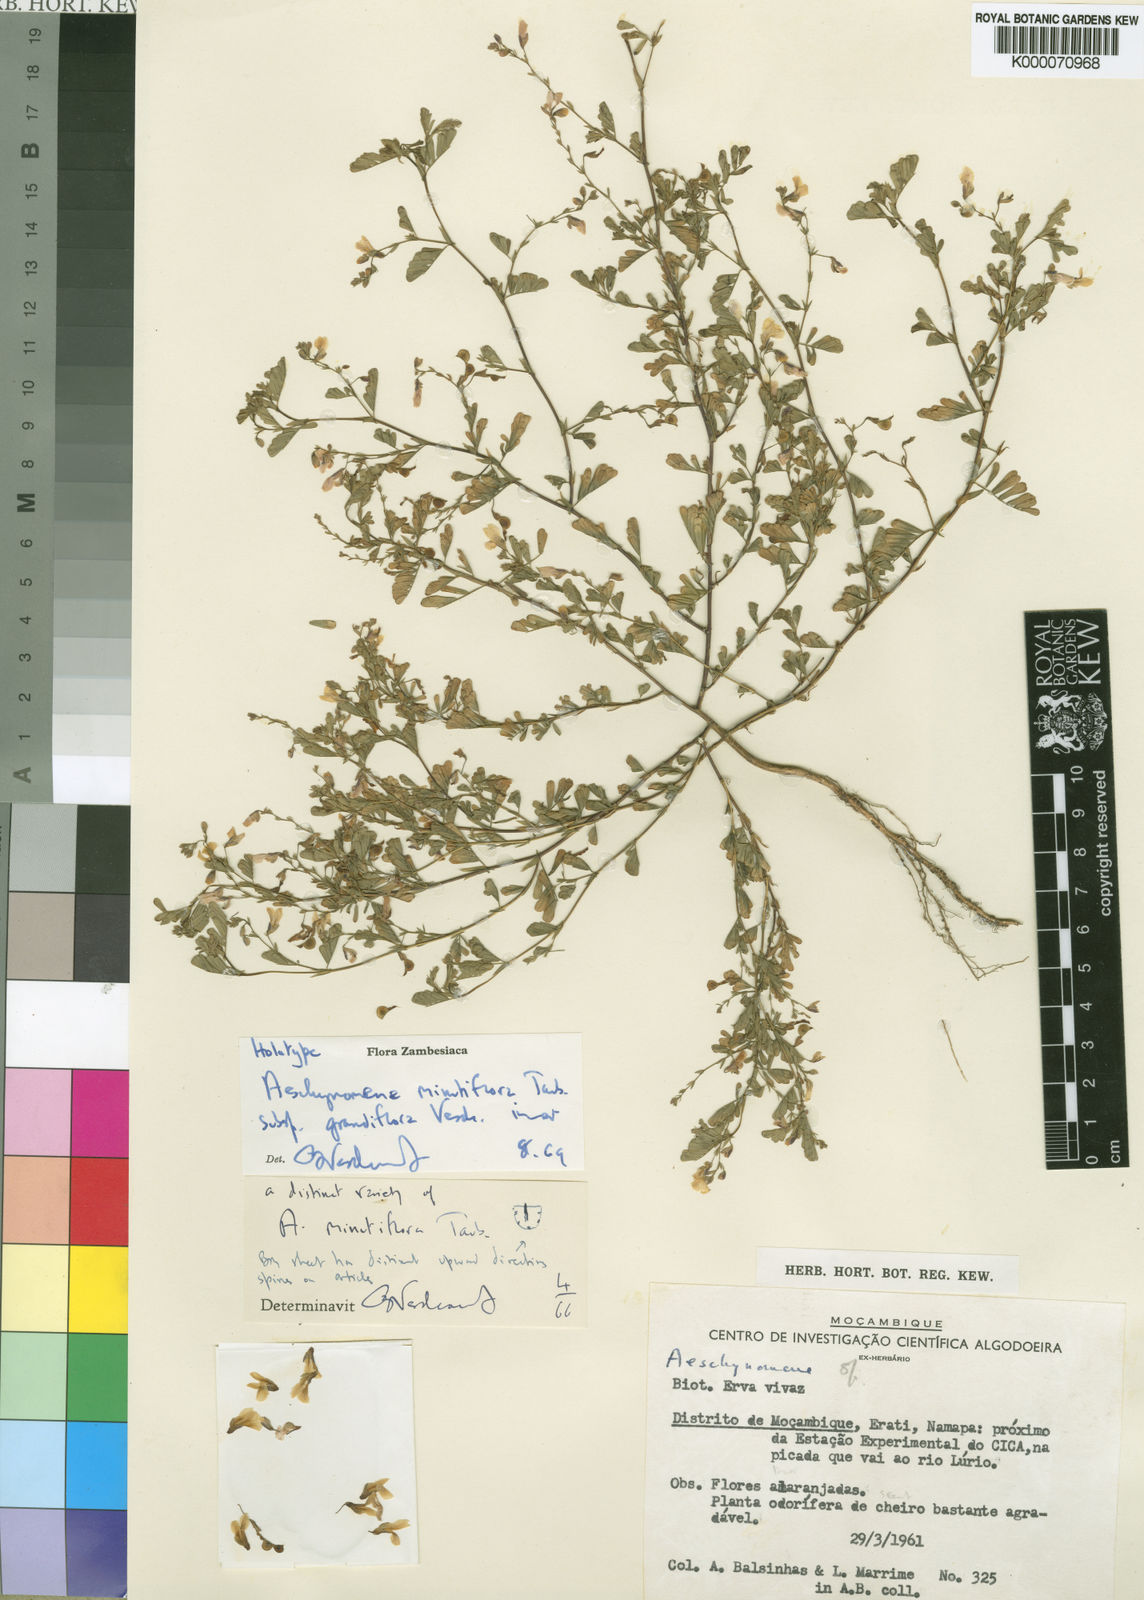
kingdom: Plantae
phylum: Tracheophyta
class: Magnoliopsida
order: Fabales
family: Fabaceae
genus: Aeschynomene
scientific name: Aeschynomene minutiflora
